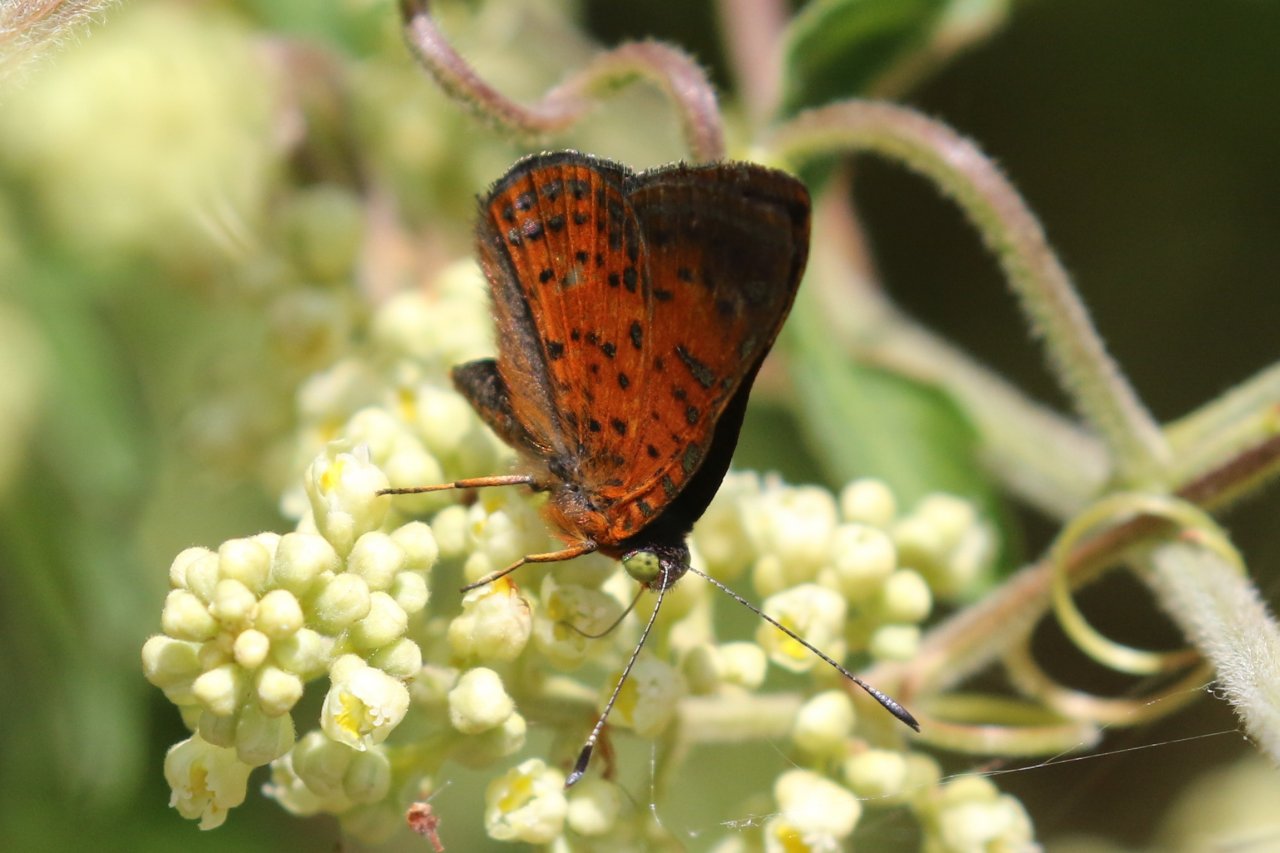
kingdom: Animalia
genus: Caria
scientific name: Caria ino
